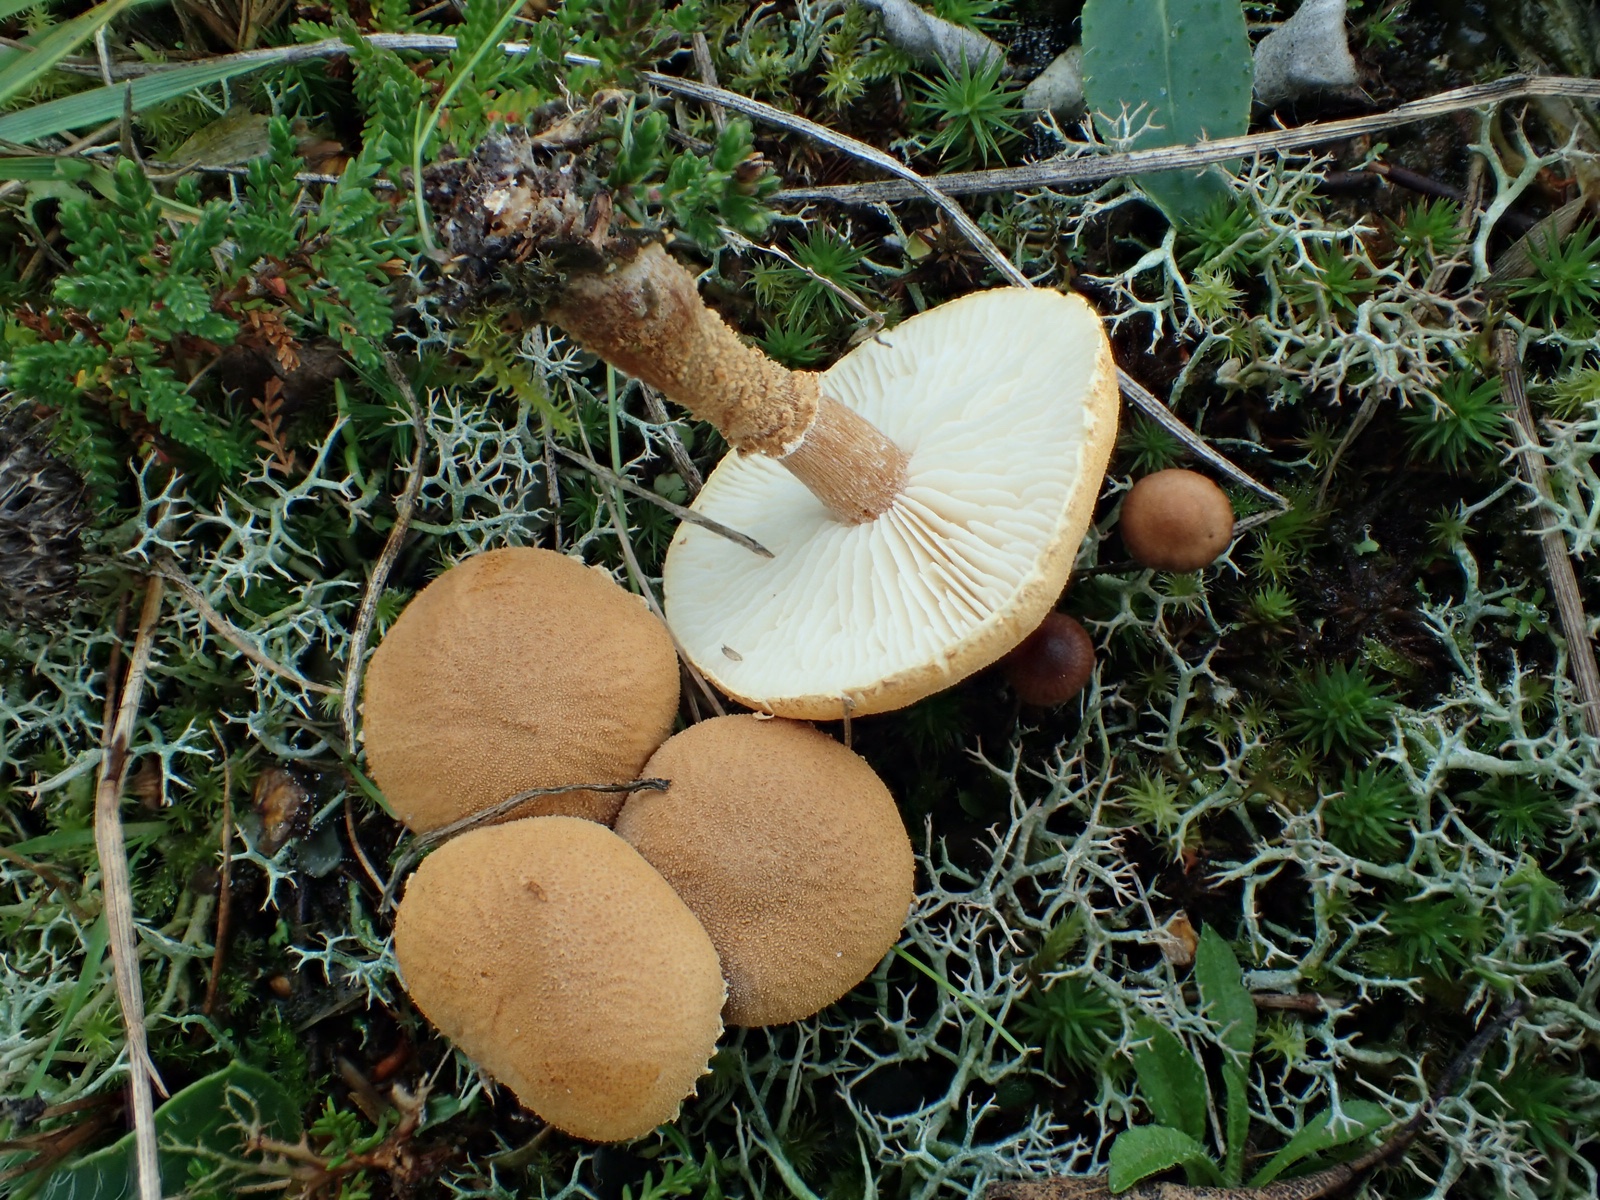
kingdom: Fungi
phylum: Basidiomycota
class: Agaricomycetes
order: Agaricales
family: Tricholomataceae
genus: Cystoderma
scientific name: Cystoderma amianthinum
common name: okkergul grynhat
